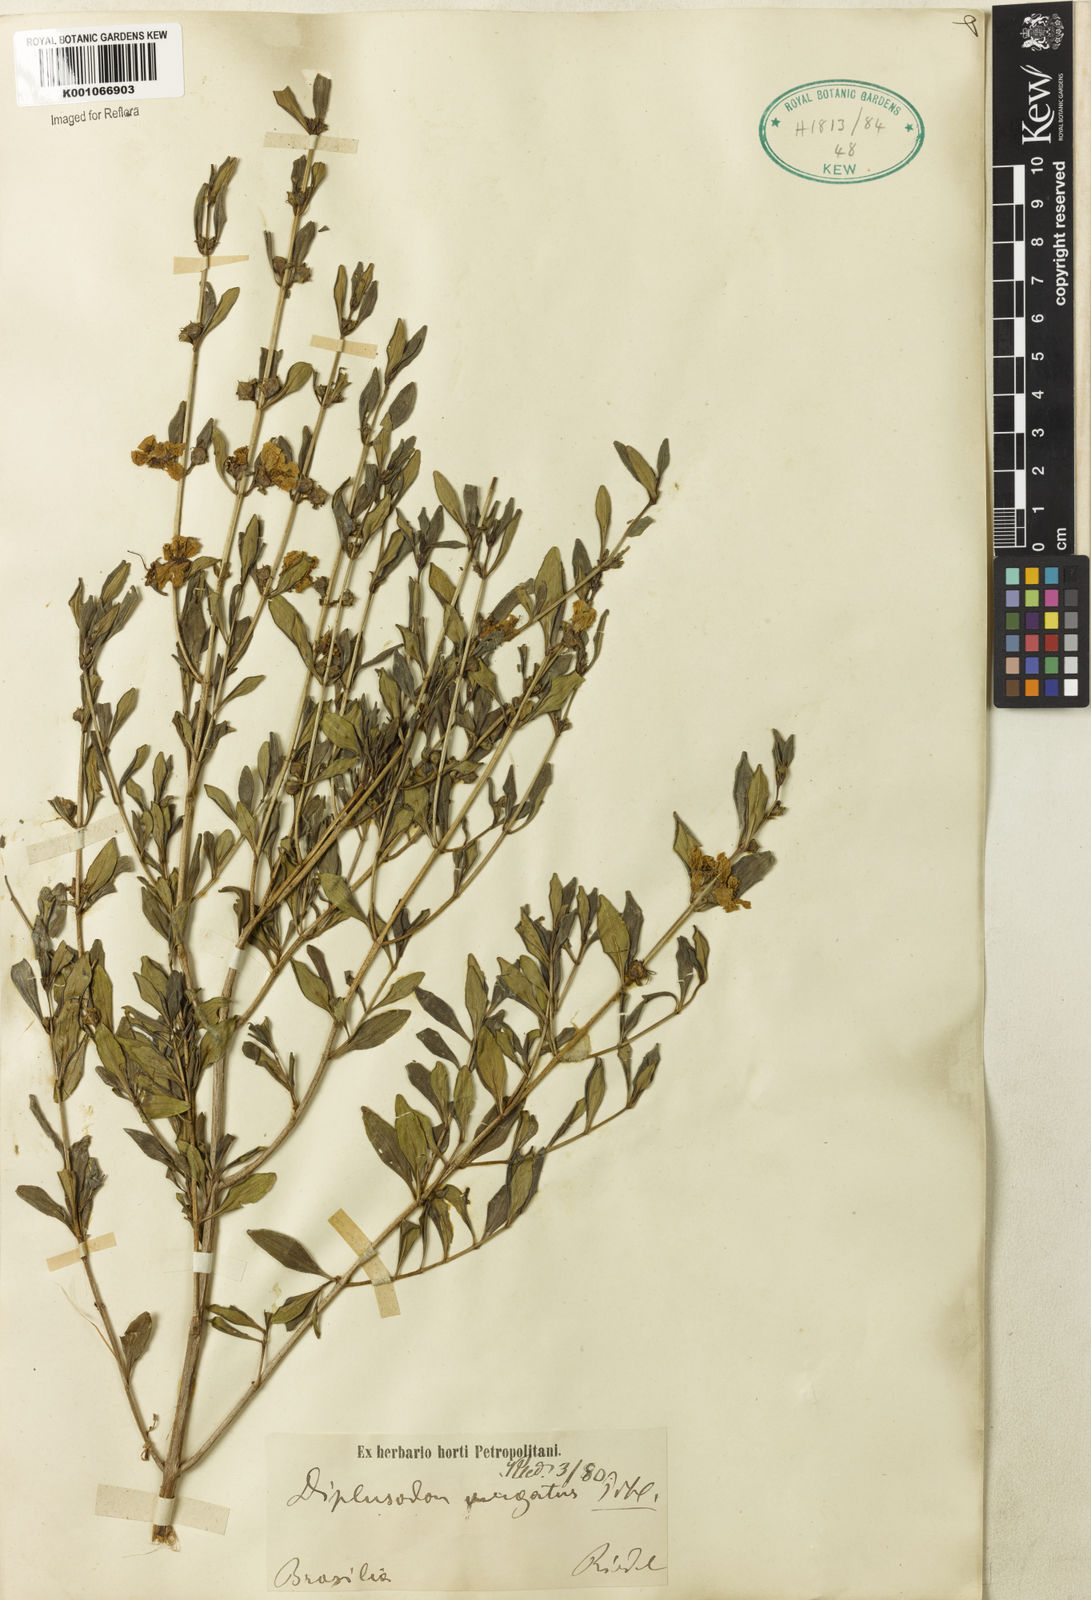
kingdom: Plantae
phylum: Tracheophyta
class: Magnoliopsida
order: Myrtales
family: Lythraceae
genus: Diplusodon
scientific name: Diplusodon virgatus
